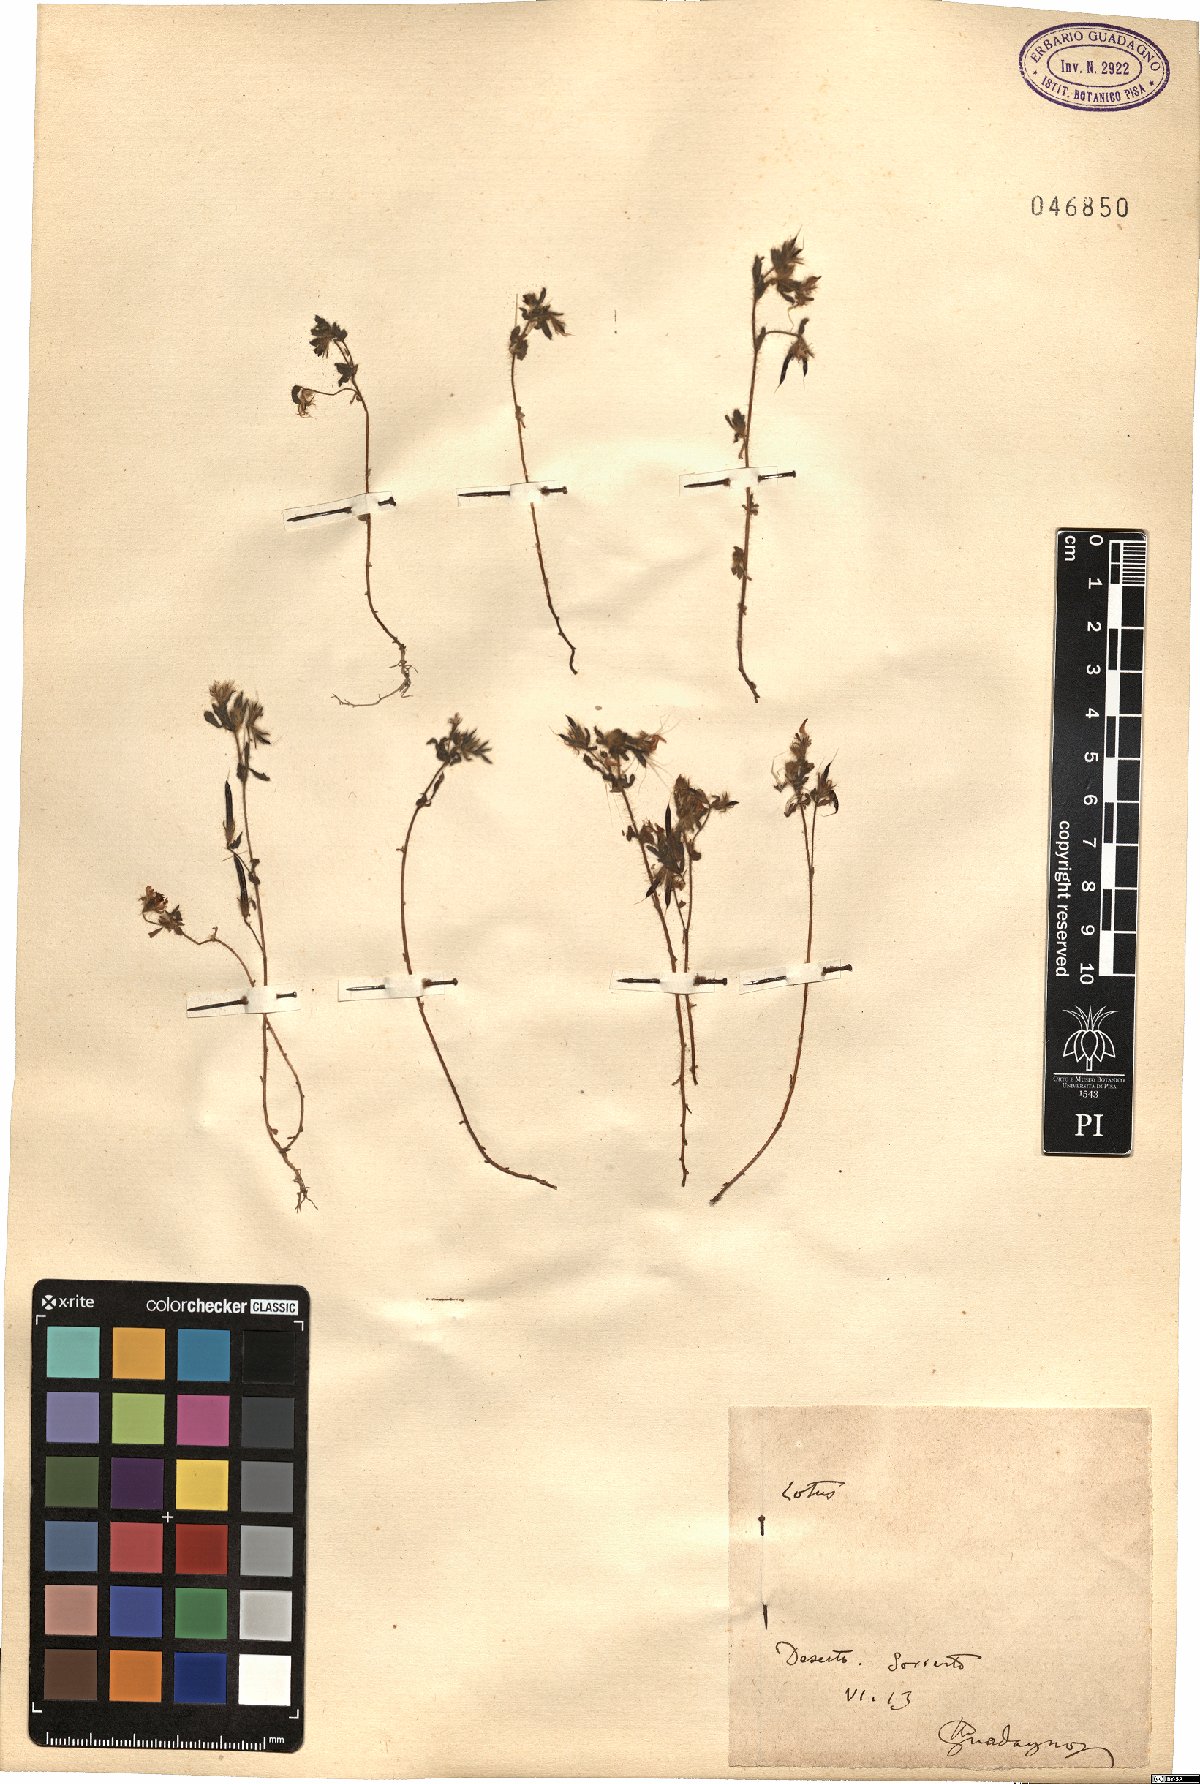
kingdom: Plantae
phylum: Tracheophyta
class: Magnoliopsida
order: Fabales
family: Fabaceae
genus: Lotus
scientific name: Lotus
